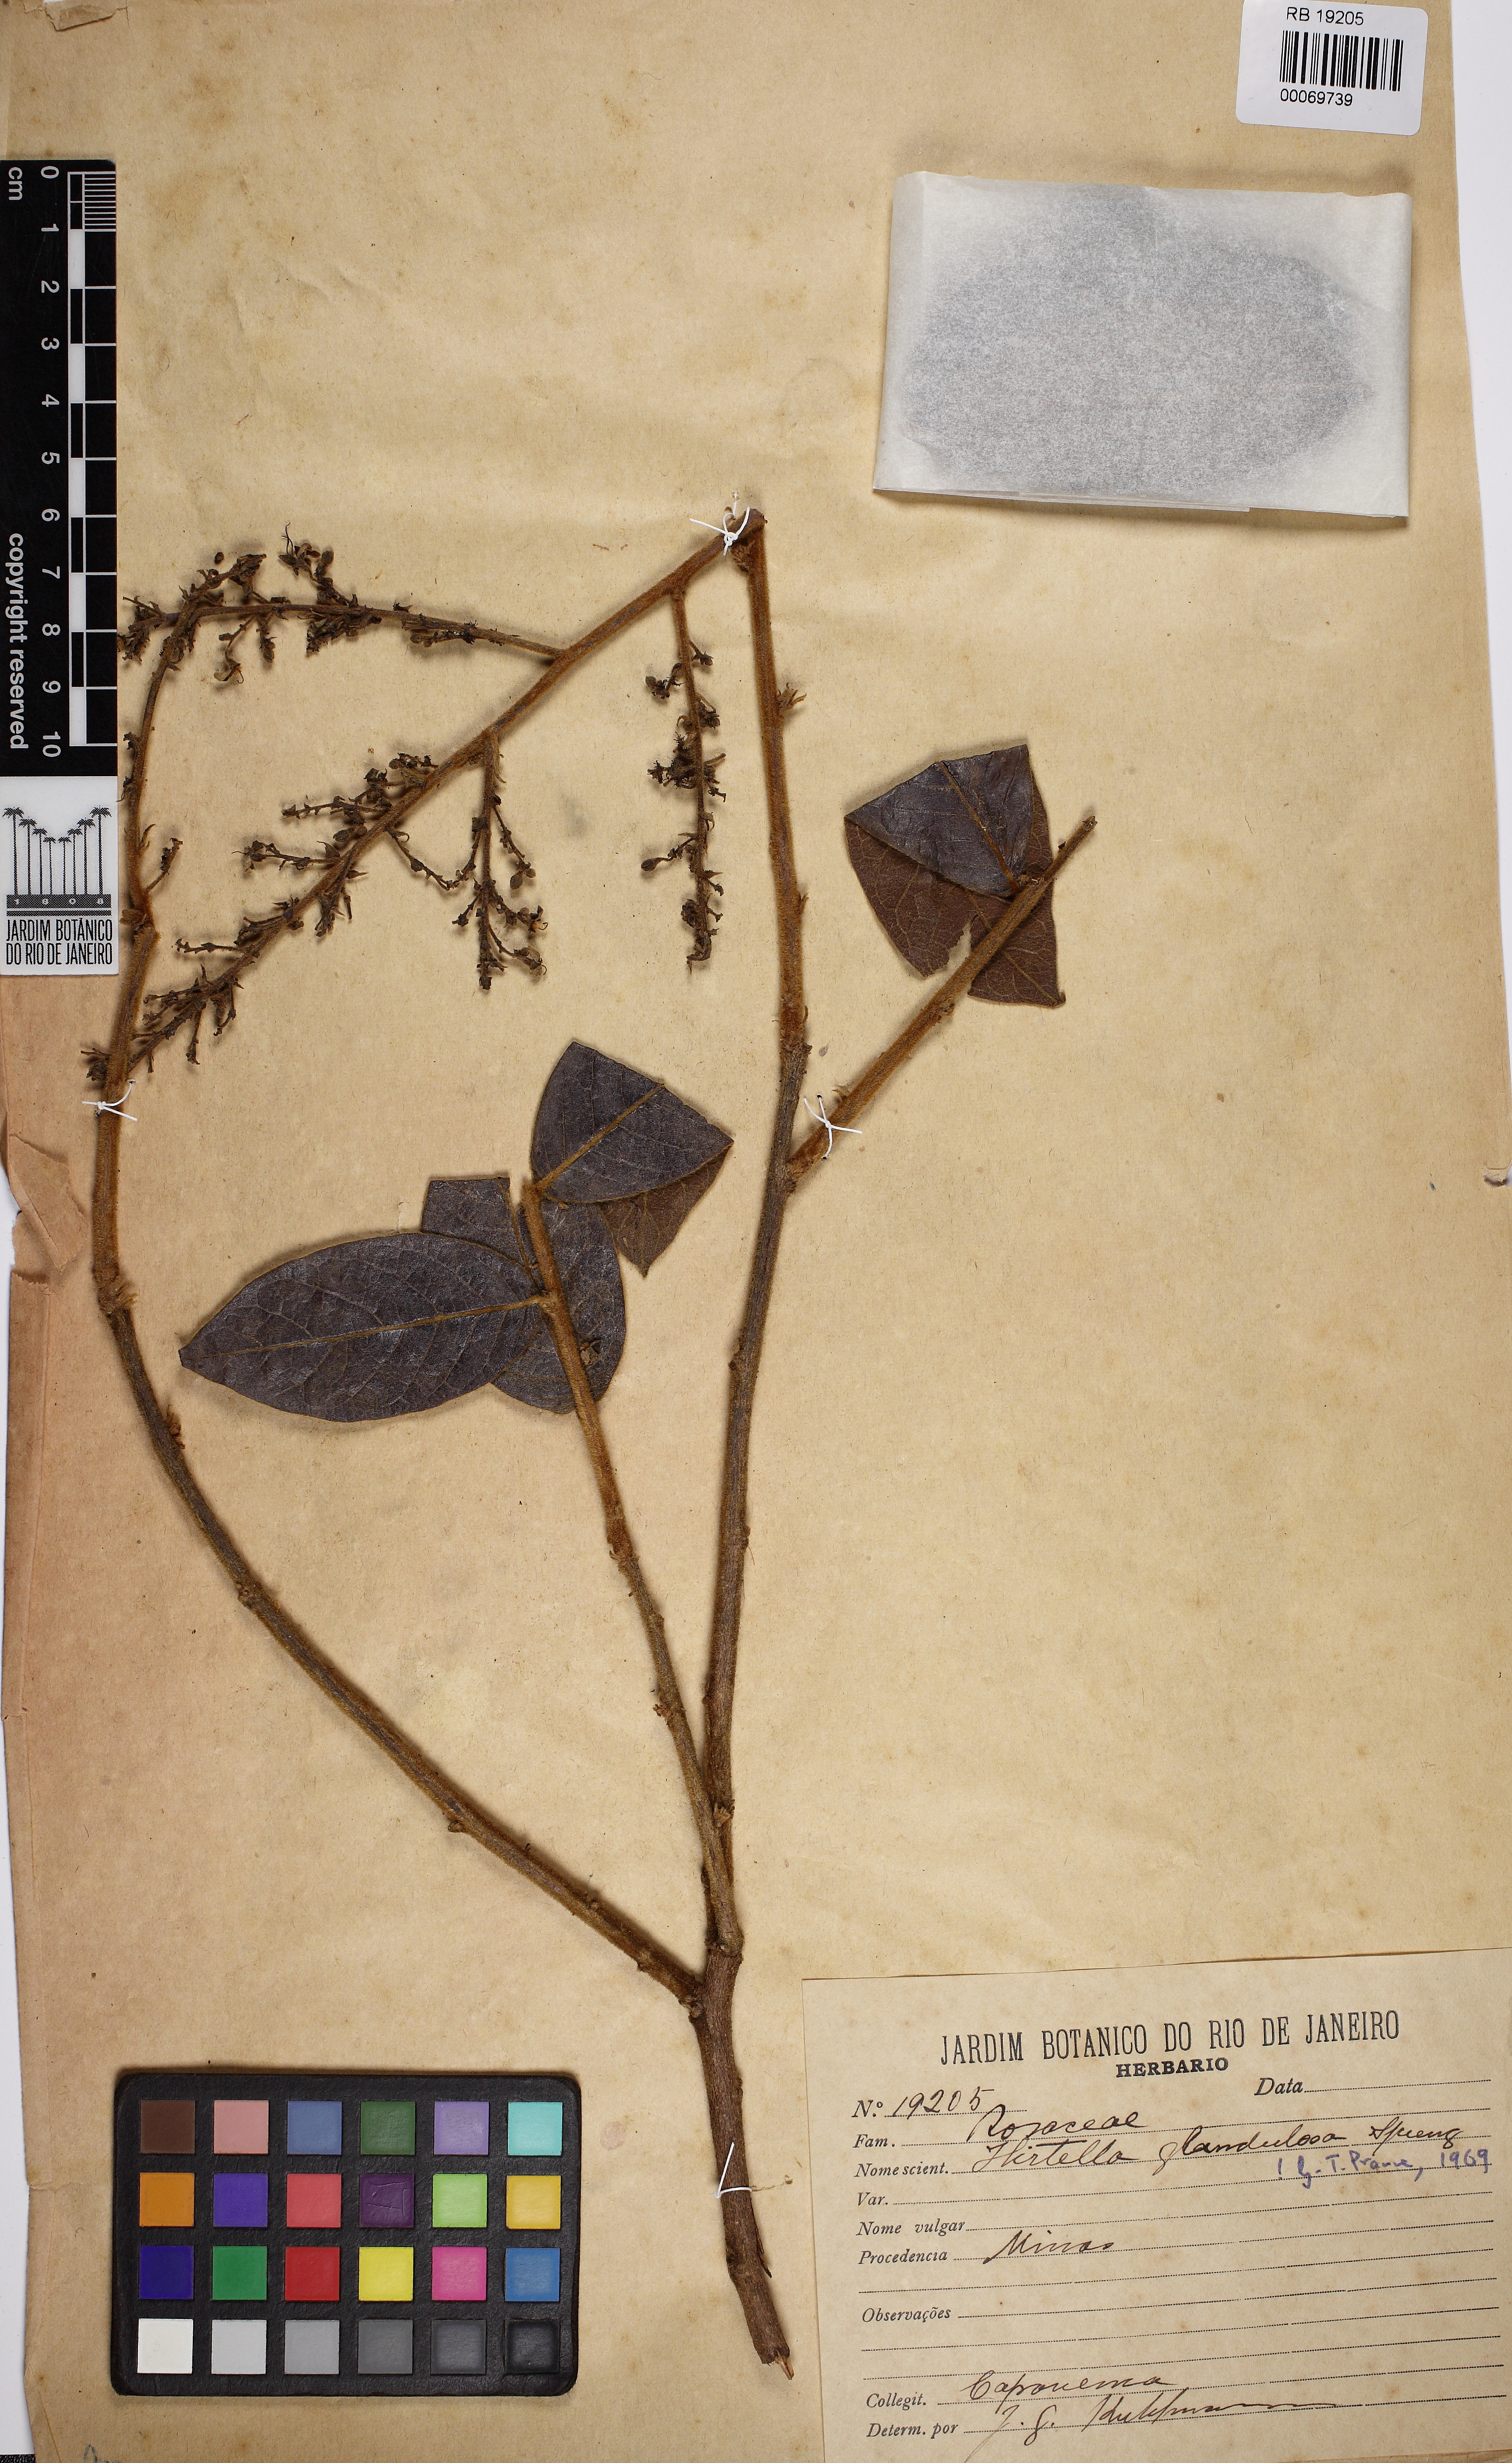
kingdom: Plantae
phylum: Tracheophyta
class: Magnoliopsida
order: Malpighiales
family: Chrysobalanaceae
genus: Hirtella
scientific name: Hirtella glandulosa
